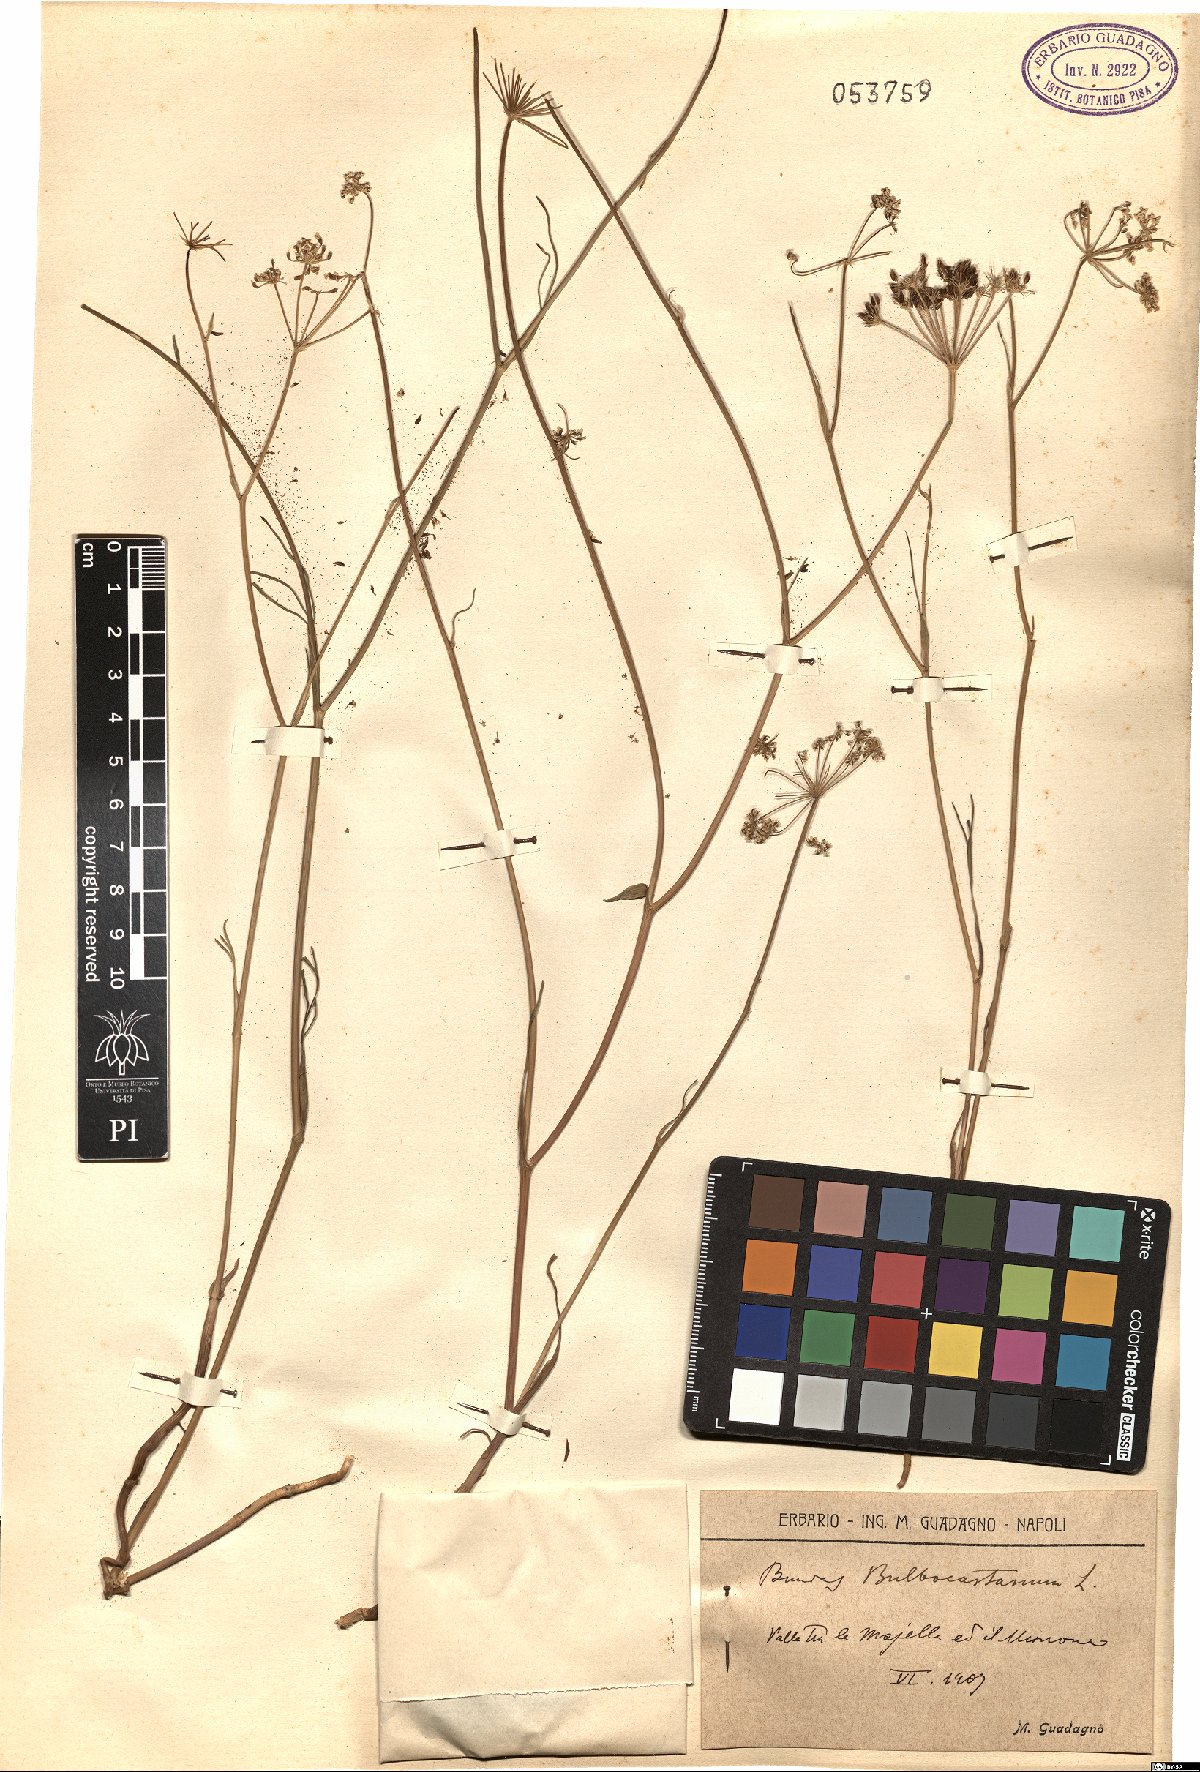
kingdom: Plantae
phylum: Tracheophyta
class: Magnoliopsida
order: Apiales
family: Apiaceae
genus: Bunium
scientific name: Bunium bulbocastanum
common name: Great pignut
